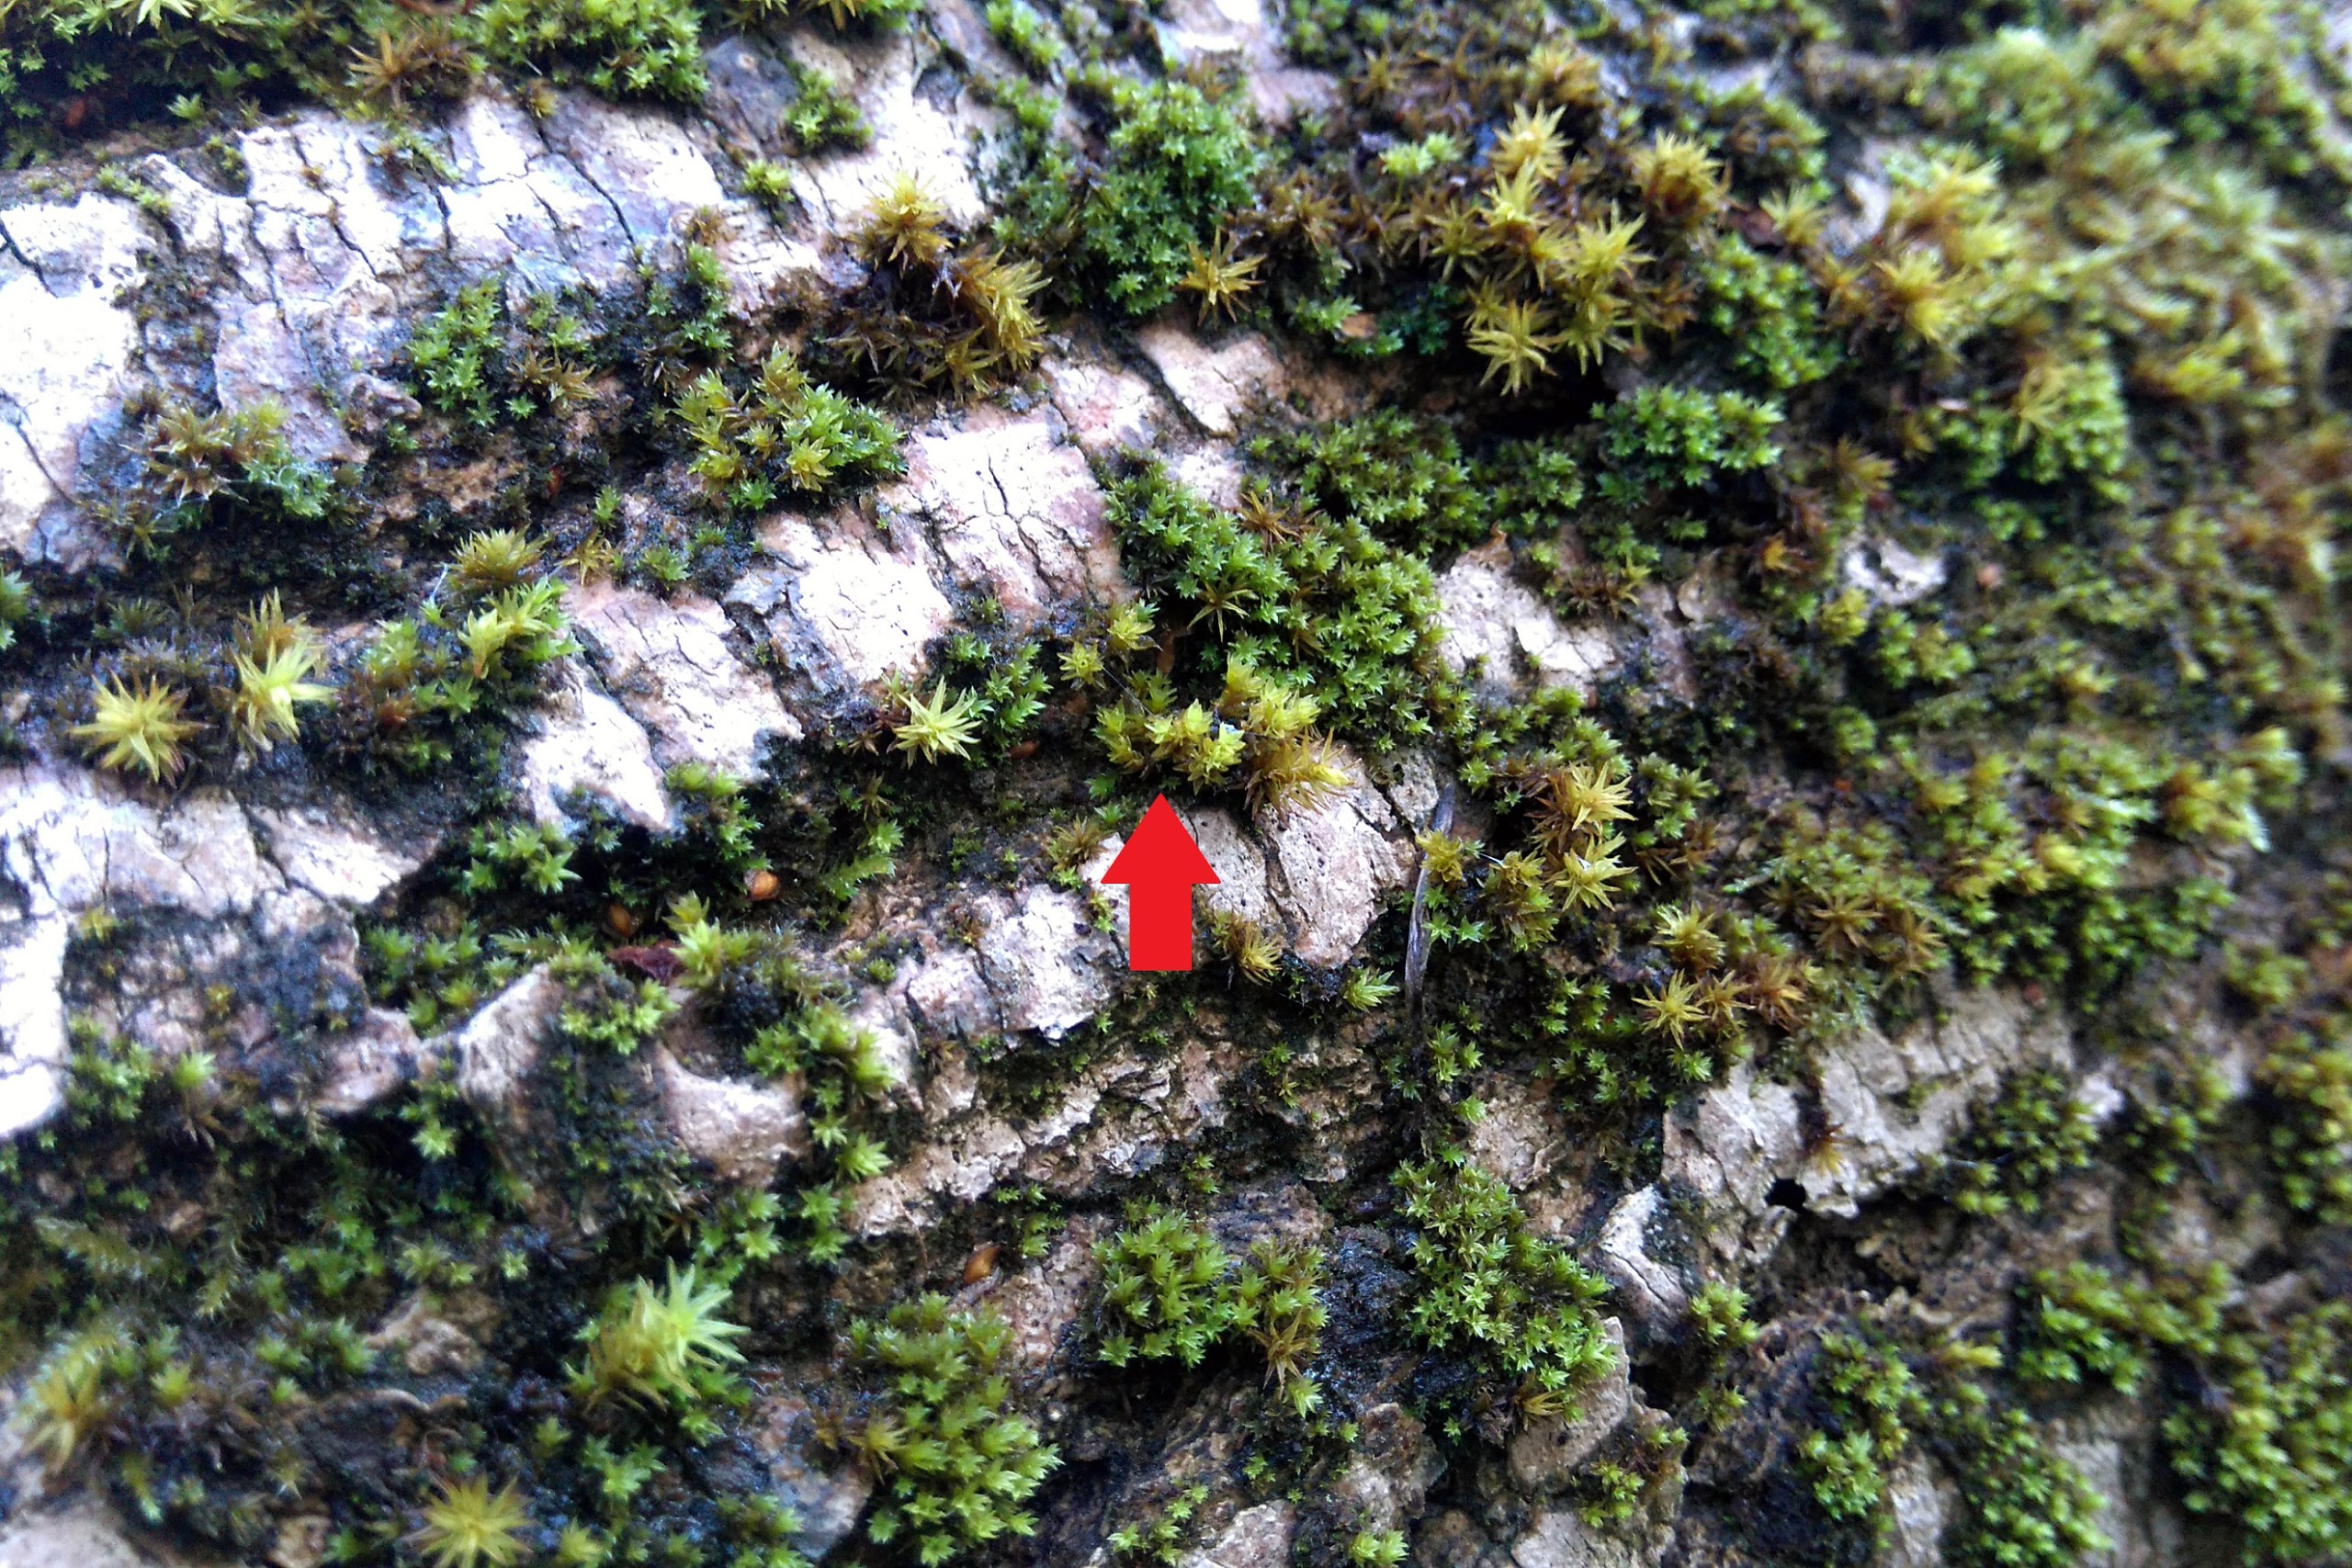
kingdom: Plantae
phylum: Bryophyta
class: Bryopsida
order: Orthotrichales
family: Orthotrichaceae
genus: Nyholmiella
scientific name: Nyholmiella obtusifolia
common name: Butbladet furehætte
